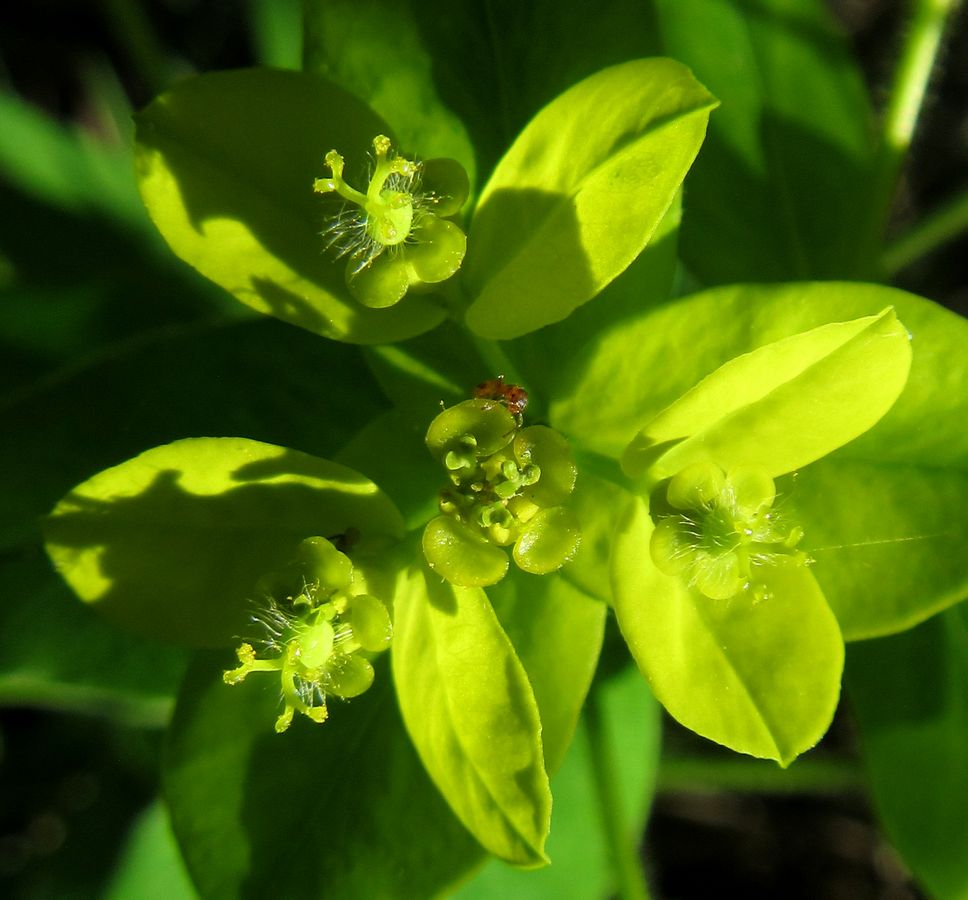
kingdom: Plantae
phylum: Tracheophyta
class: Magnoliopsida
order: Malpighiales
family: Euphorbiaceae
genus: Euphorbia
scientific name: Euphorbia
